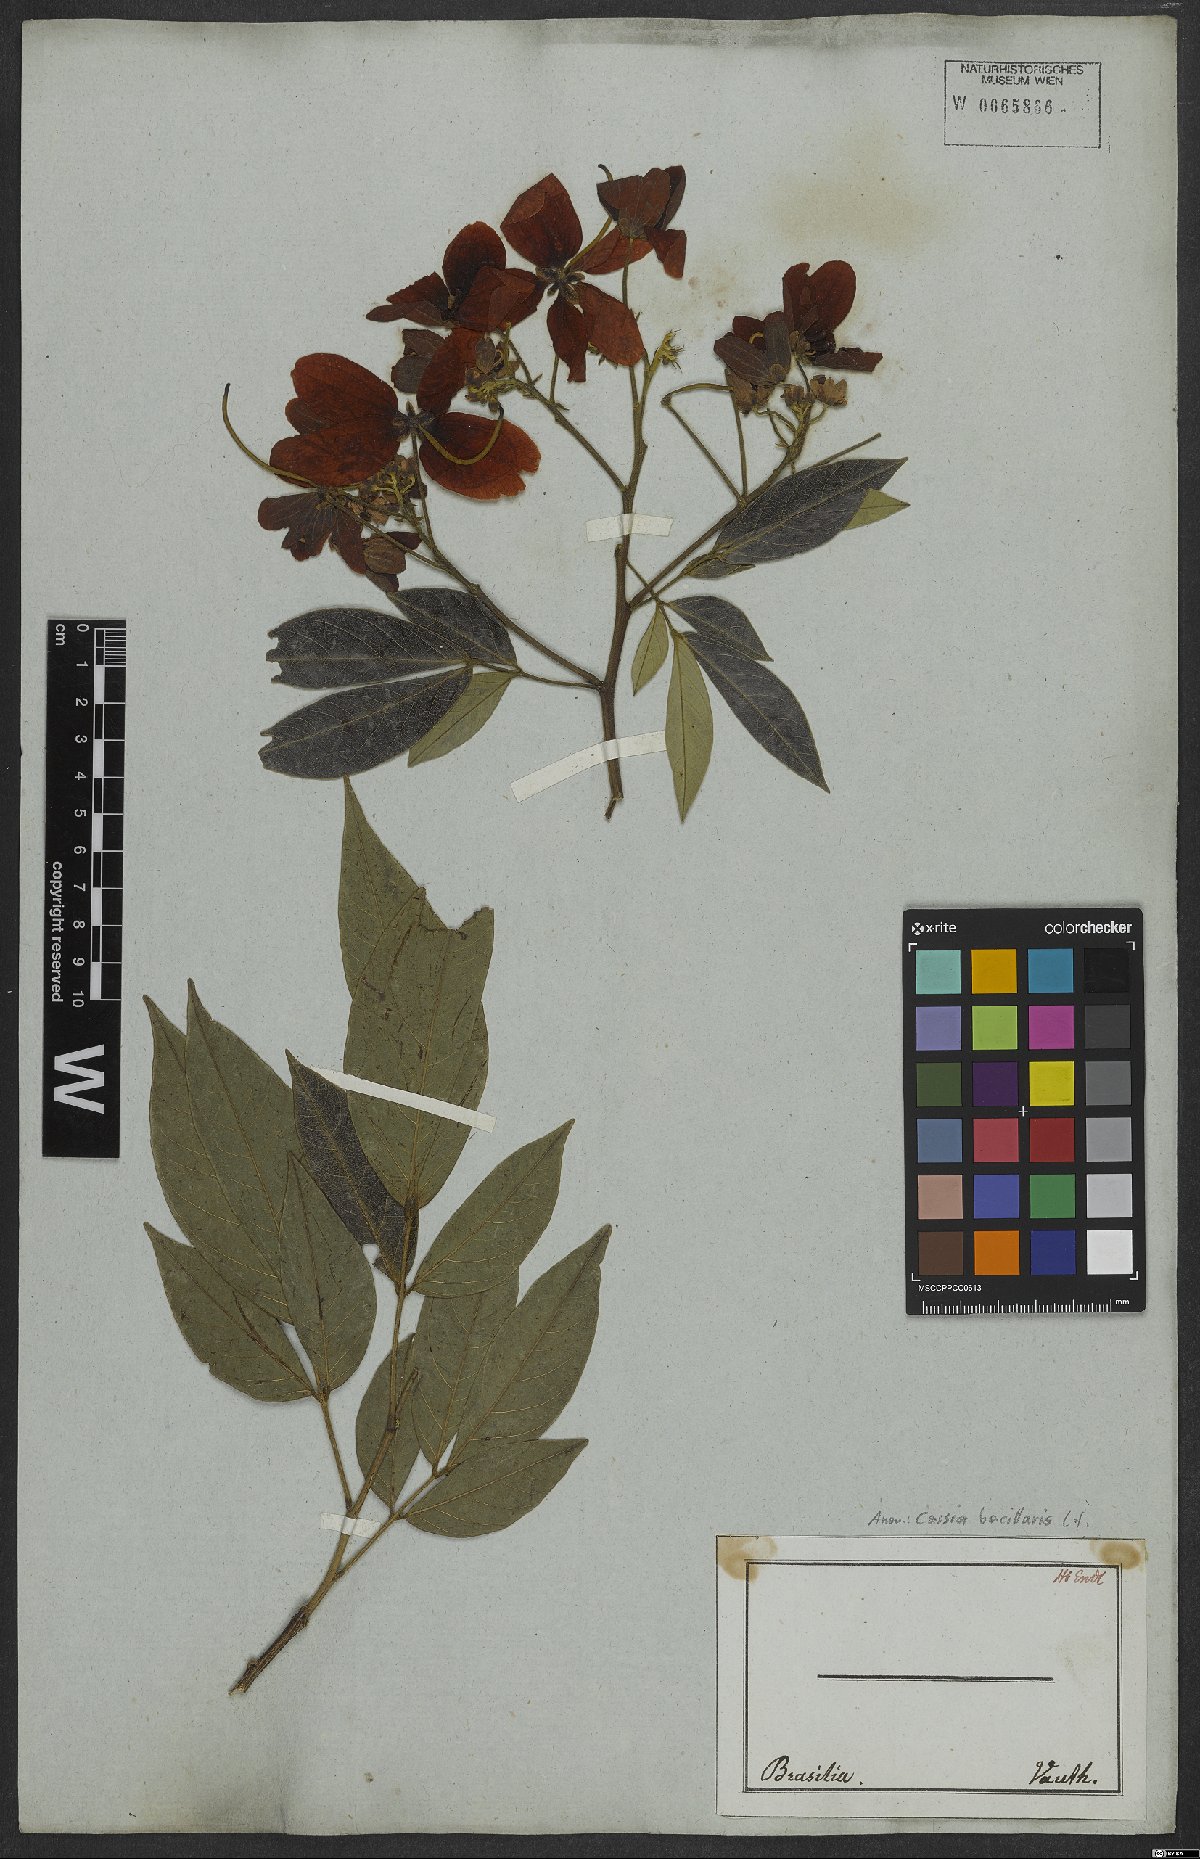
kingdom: Plantae
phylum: Tracheophyta
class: Magnoliopsida
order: Fabales
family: Fabaceae
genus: Senna
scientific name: Senna bacillaris
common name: West indian showertree
